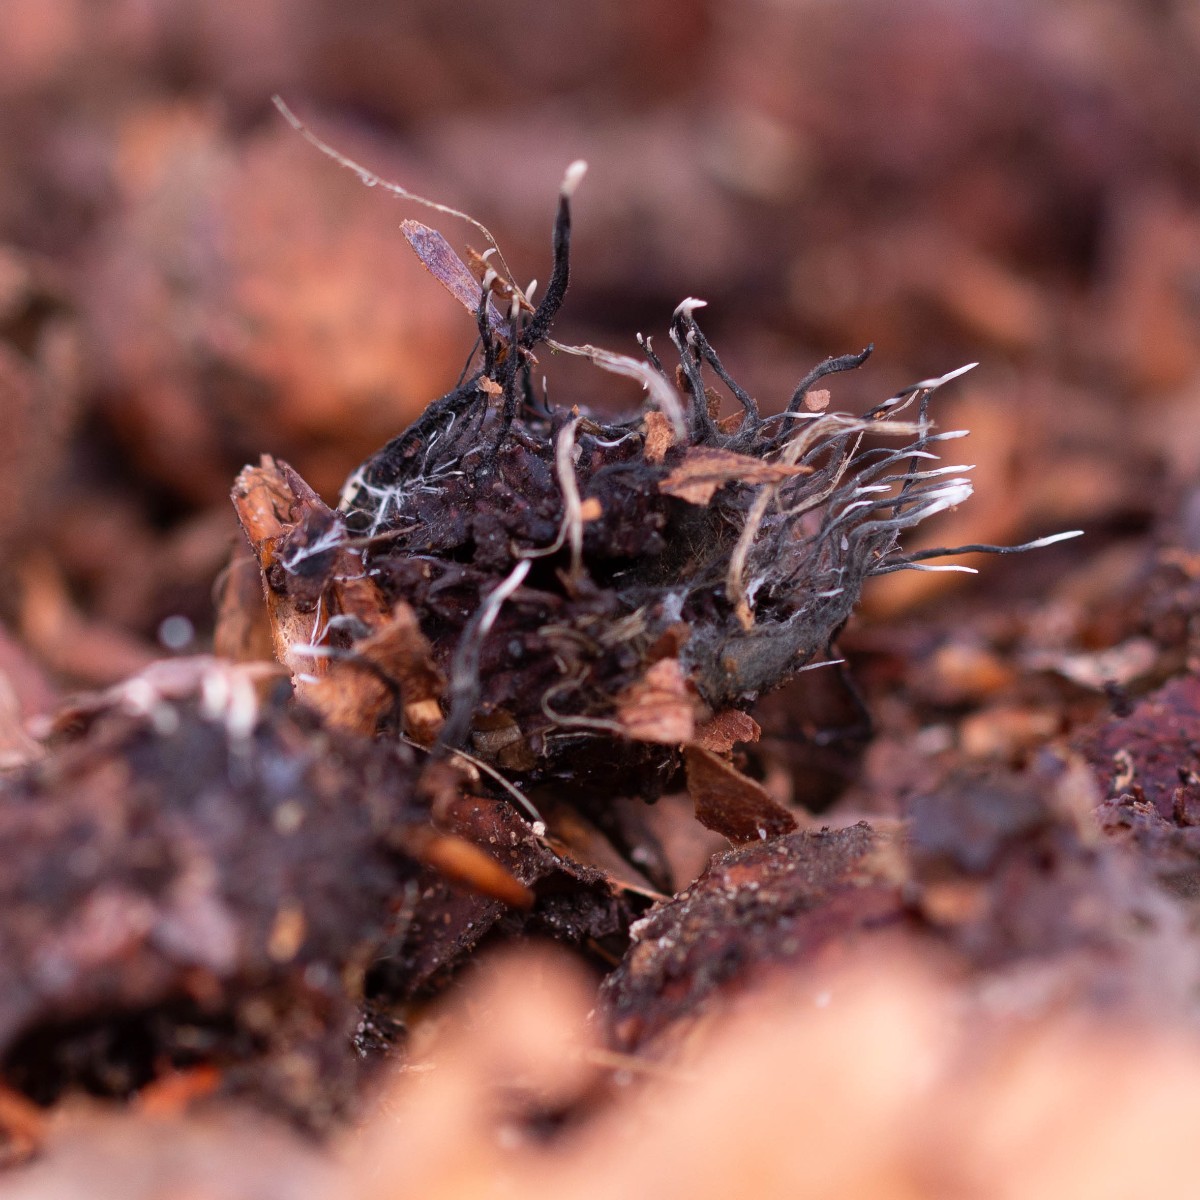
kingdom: Fungi
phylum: Ascomycota
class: Sordariomycetes
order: Xylariales
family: Xylariaceae
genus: Xylaria
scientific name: Xylaria carpophila
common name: bogskål-stødsvamp
